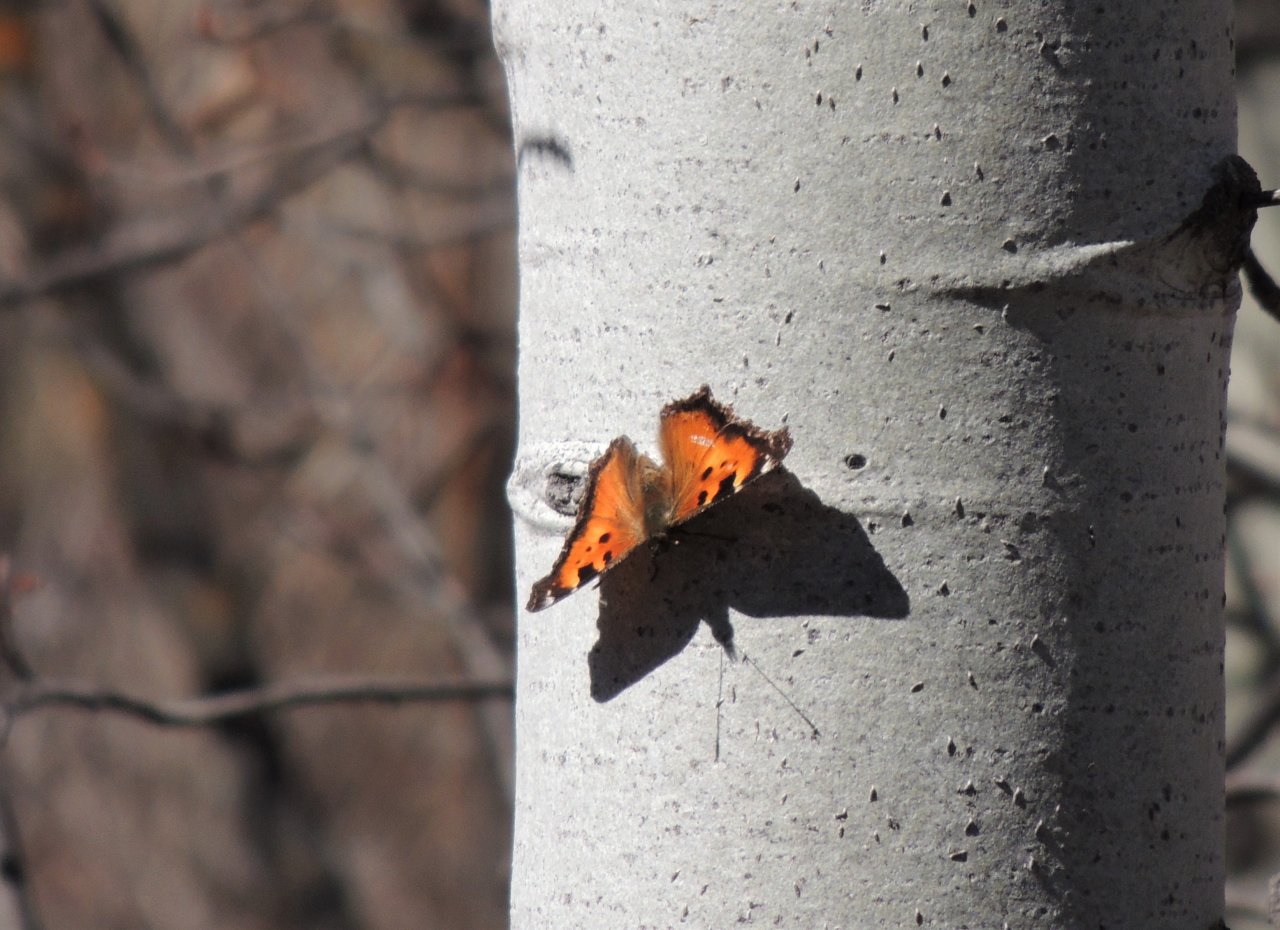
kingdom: Animalia
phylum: Arthropoda
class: Insecta
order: Lepidoptera
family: Nymphalidae
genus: Nymphalis
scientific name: Nymphalis californica
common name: California Tortoiseshell
